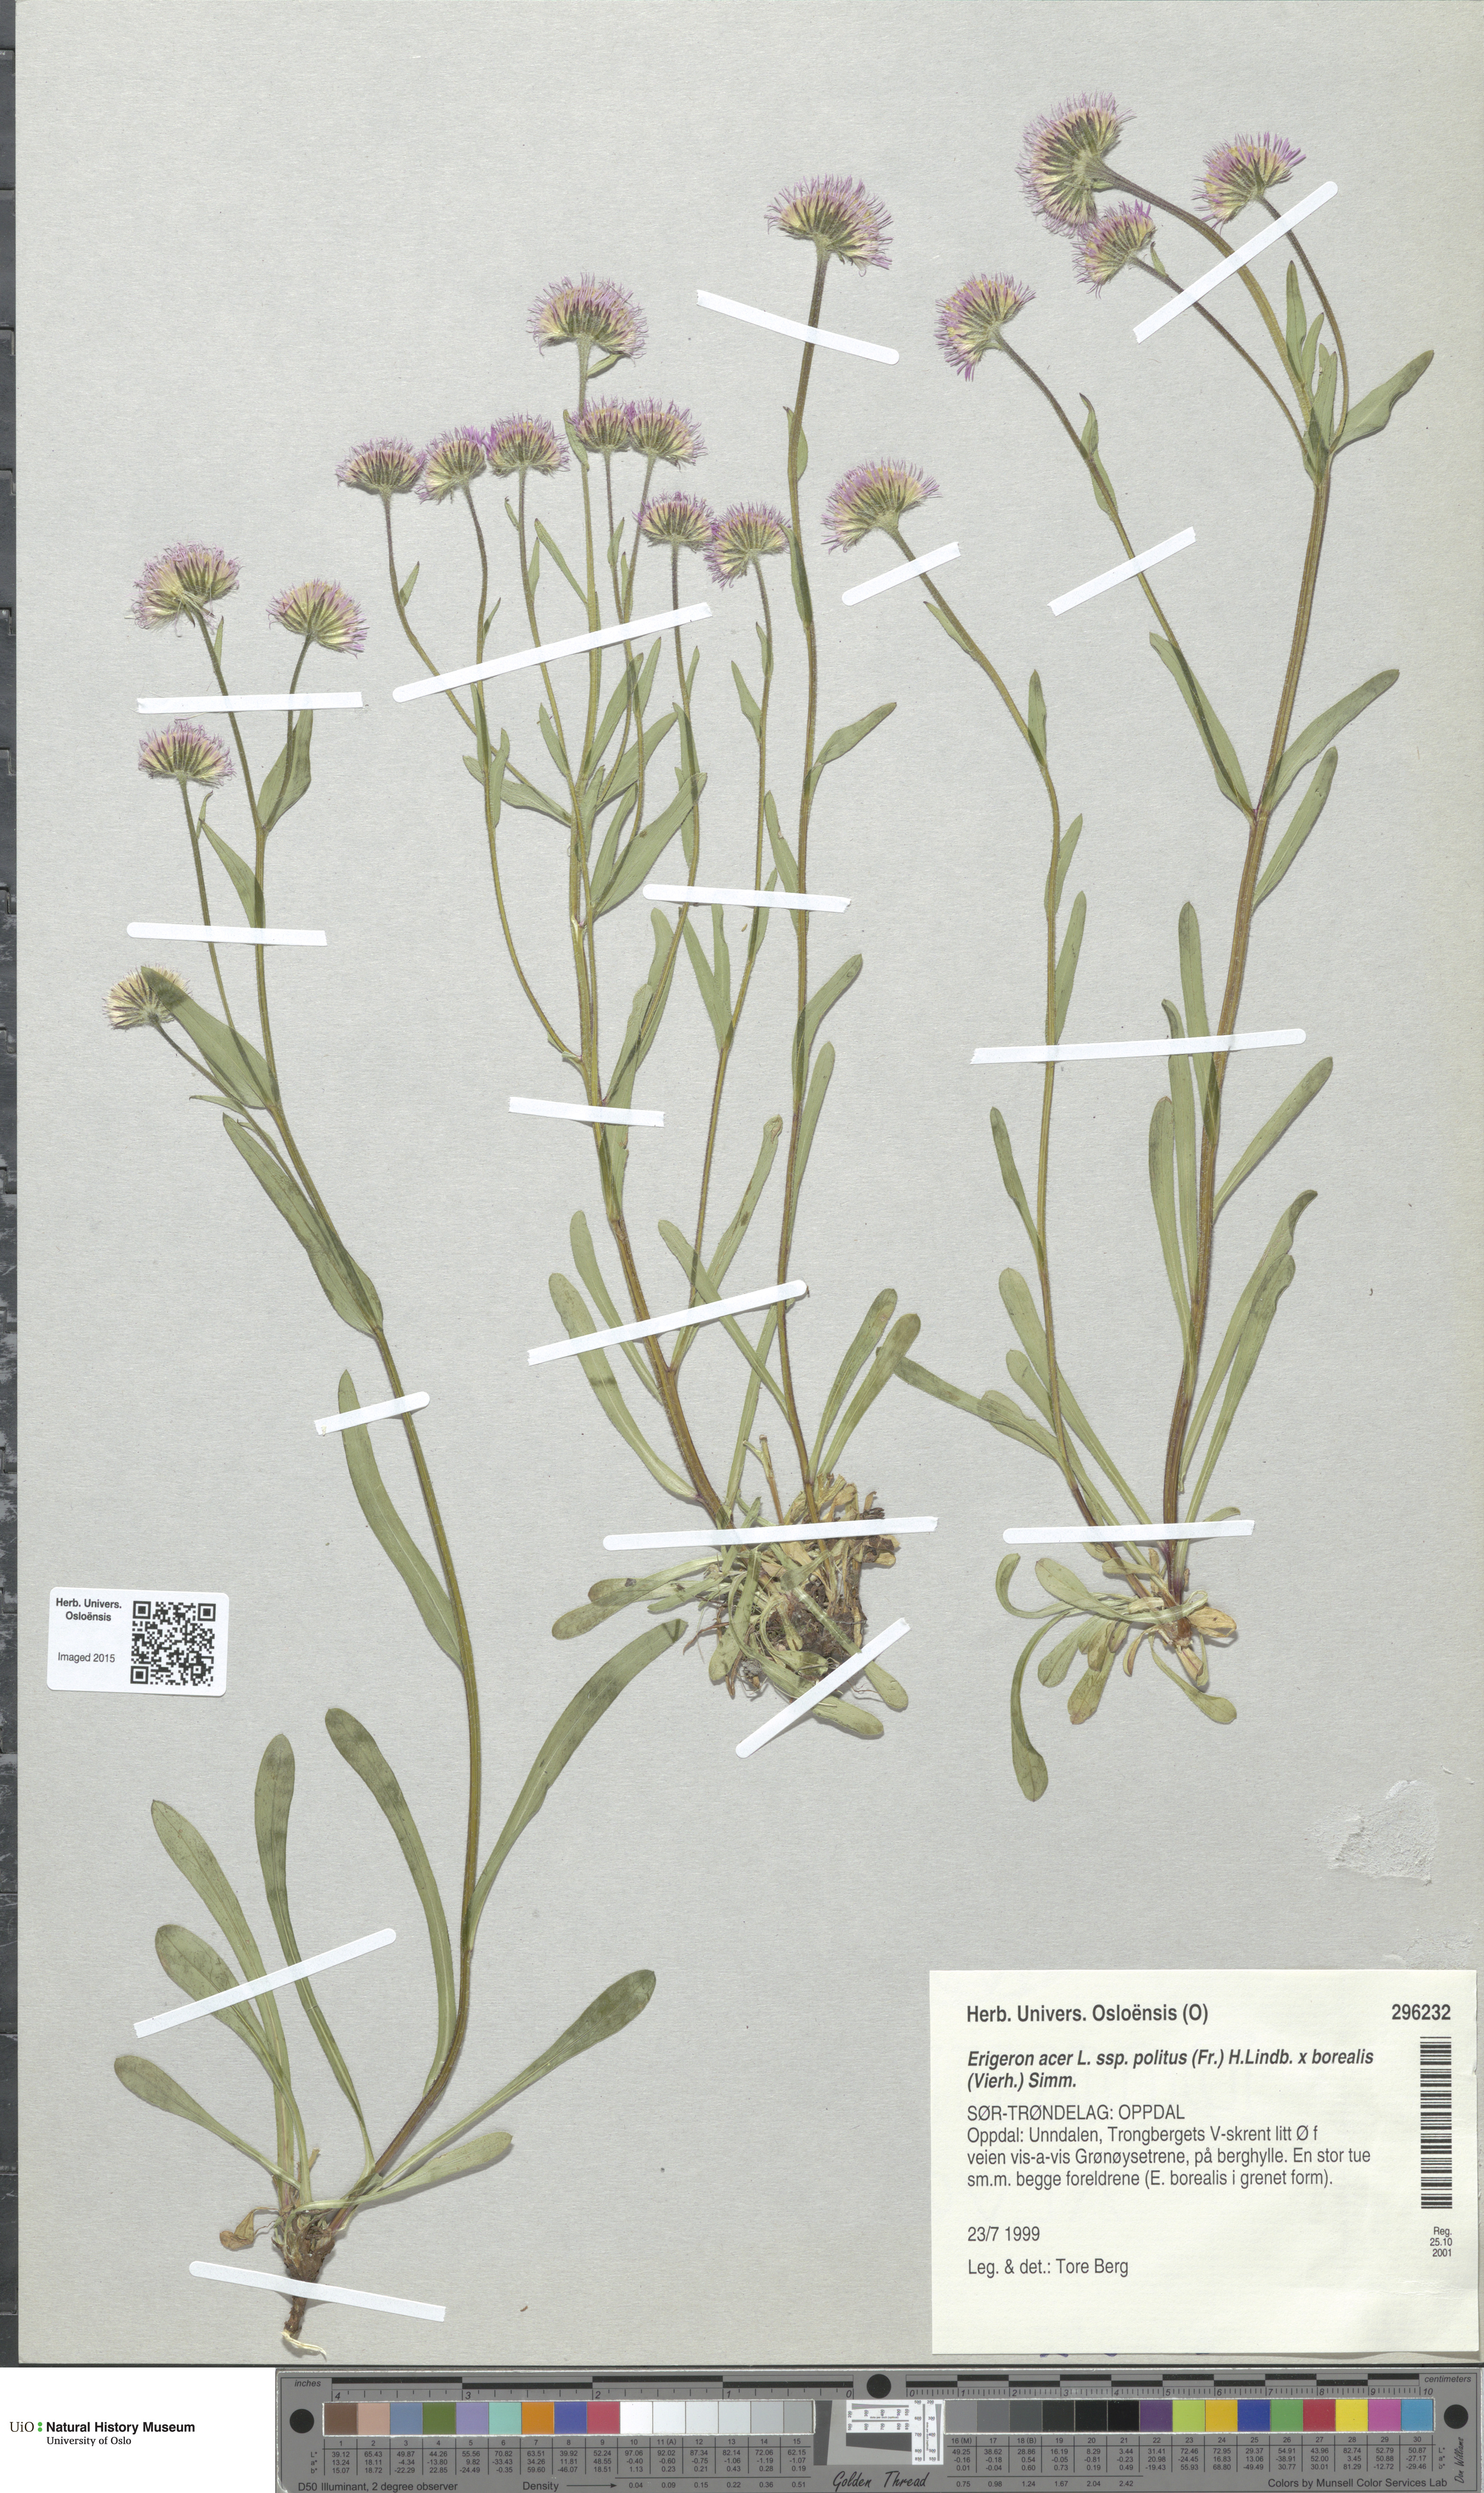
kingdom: Plantae
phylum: Tracheophyta
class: Magnoliopsida
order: Asterales
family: Asteraceae
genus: Erigeron
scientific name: Erigeron
